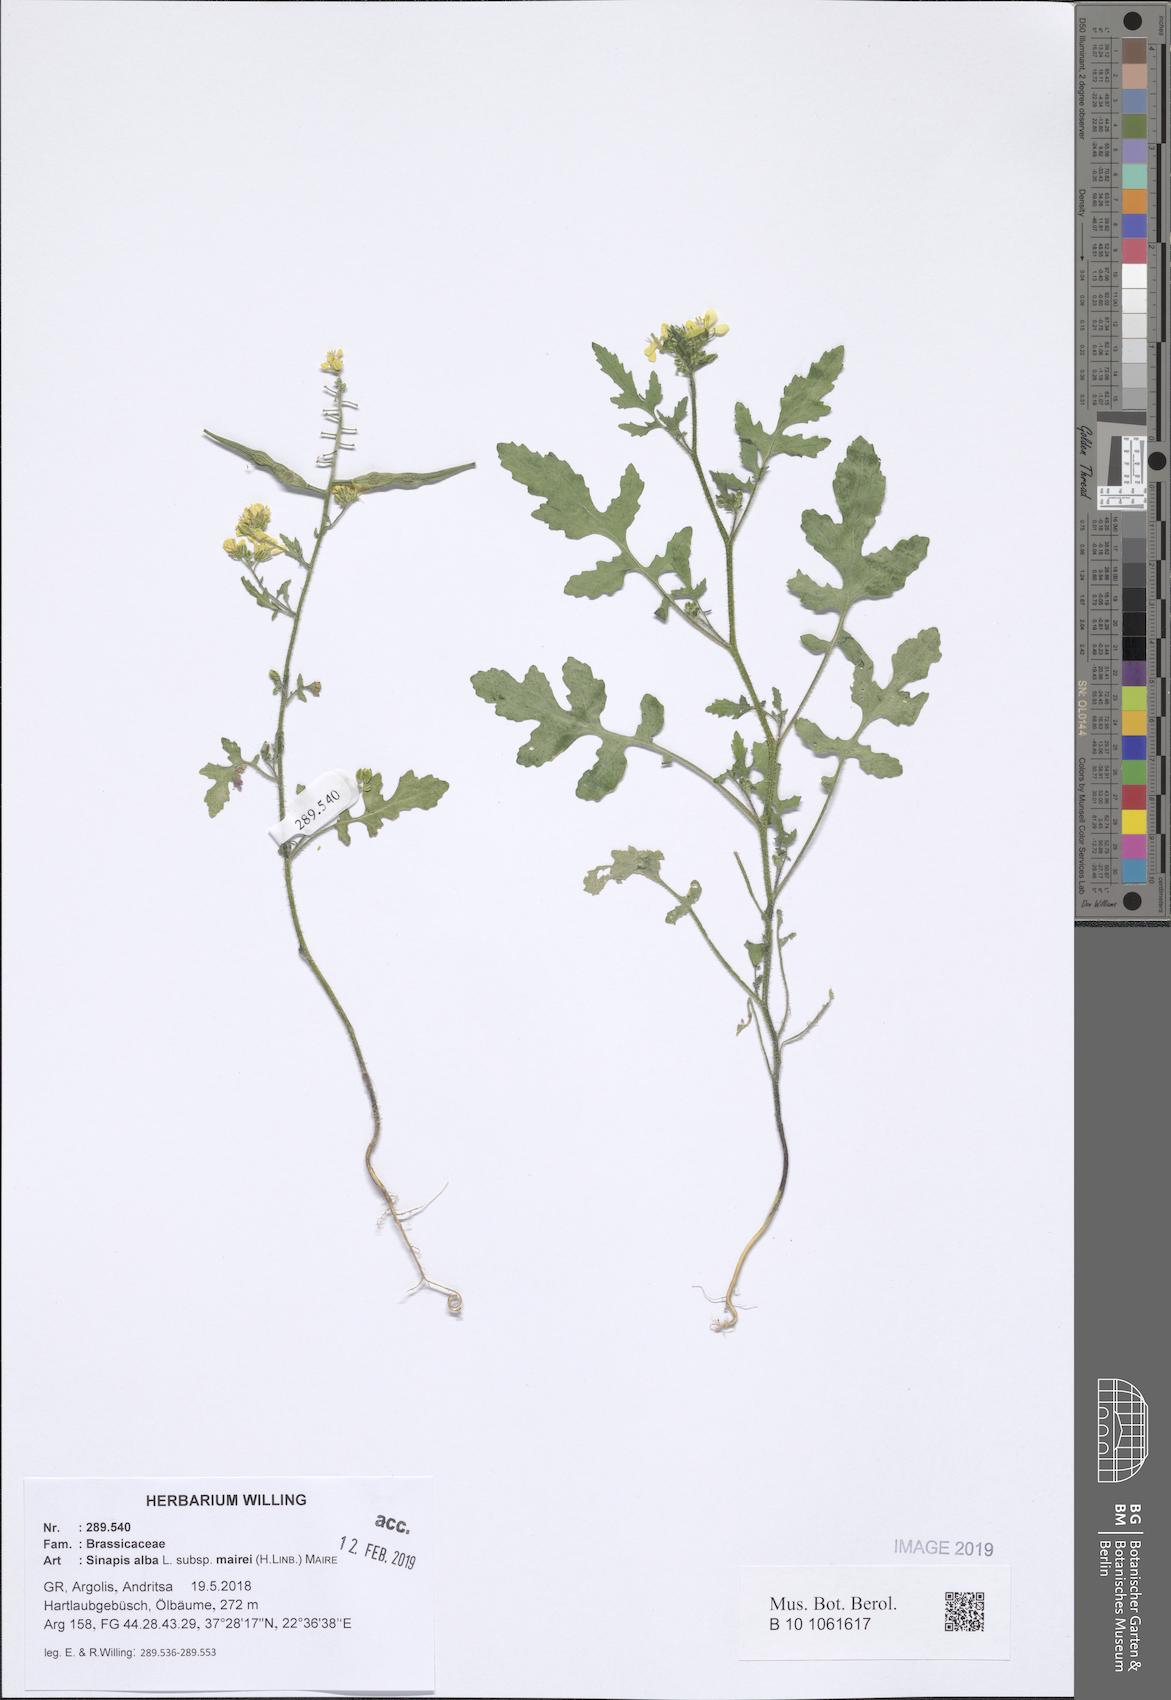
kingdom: Plantae
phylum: Tracheophyta
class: Magnoliopsida
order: Brassicales
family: Brassicaceae
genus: Sinapis
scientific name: Sinapis alba
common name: White mustard
